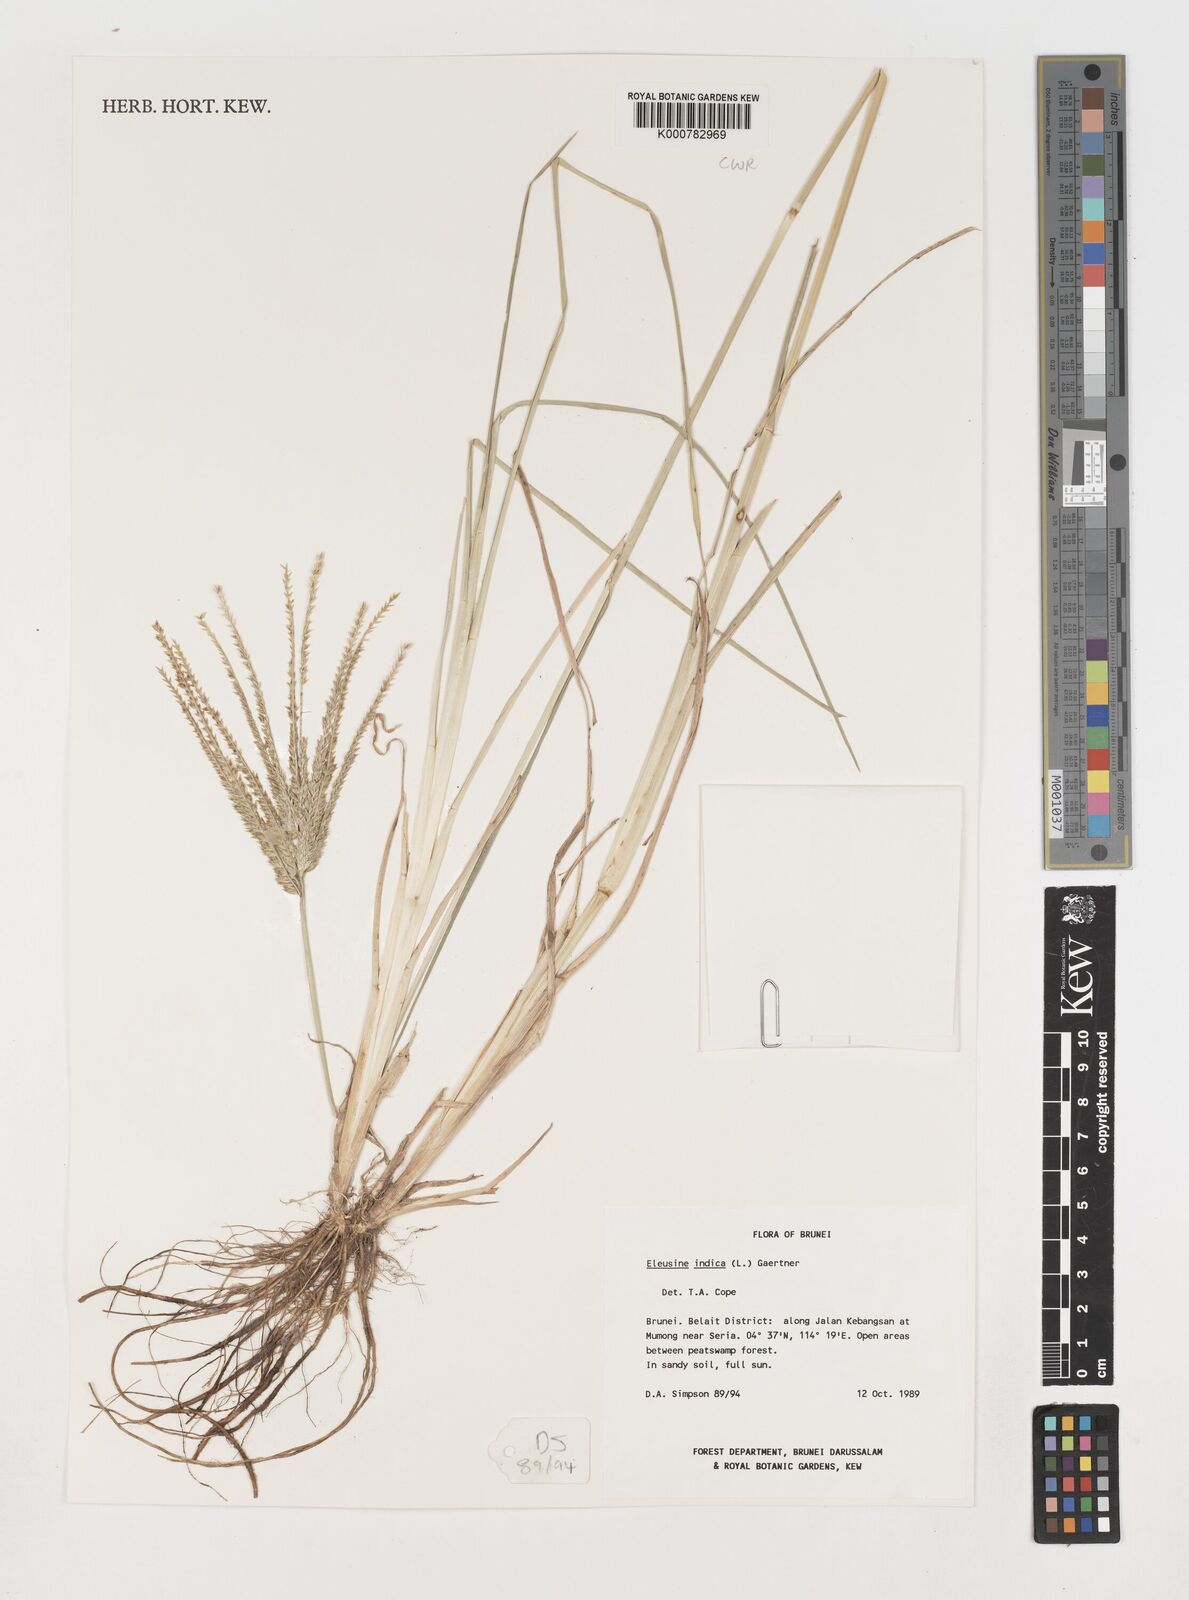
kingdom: Plantae
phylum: Tracheophyta
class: Liliopsida
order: Poales
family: Poaceae
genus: Eleusine
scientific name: Eleusine indica
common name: Yard-grass
